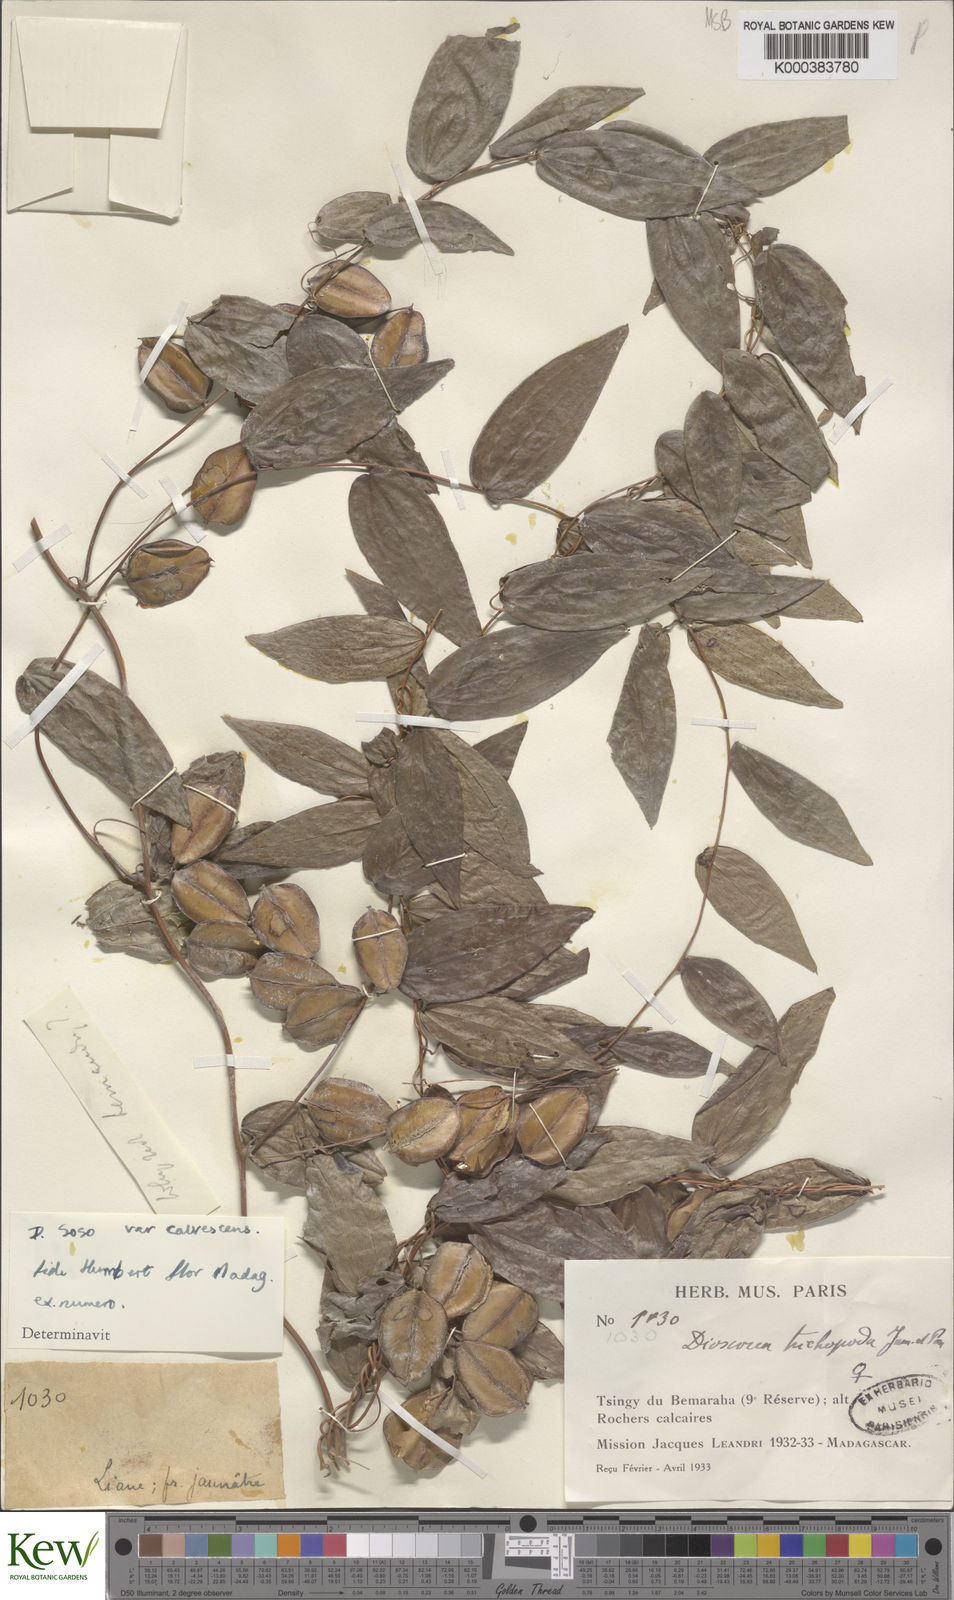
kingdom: Plantae
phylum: Tracheophyta
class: Liliopsida
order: Dioscoreales
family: Dioscoreaceae
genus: Dioscorea
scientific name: Dioscorea
